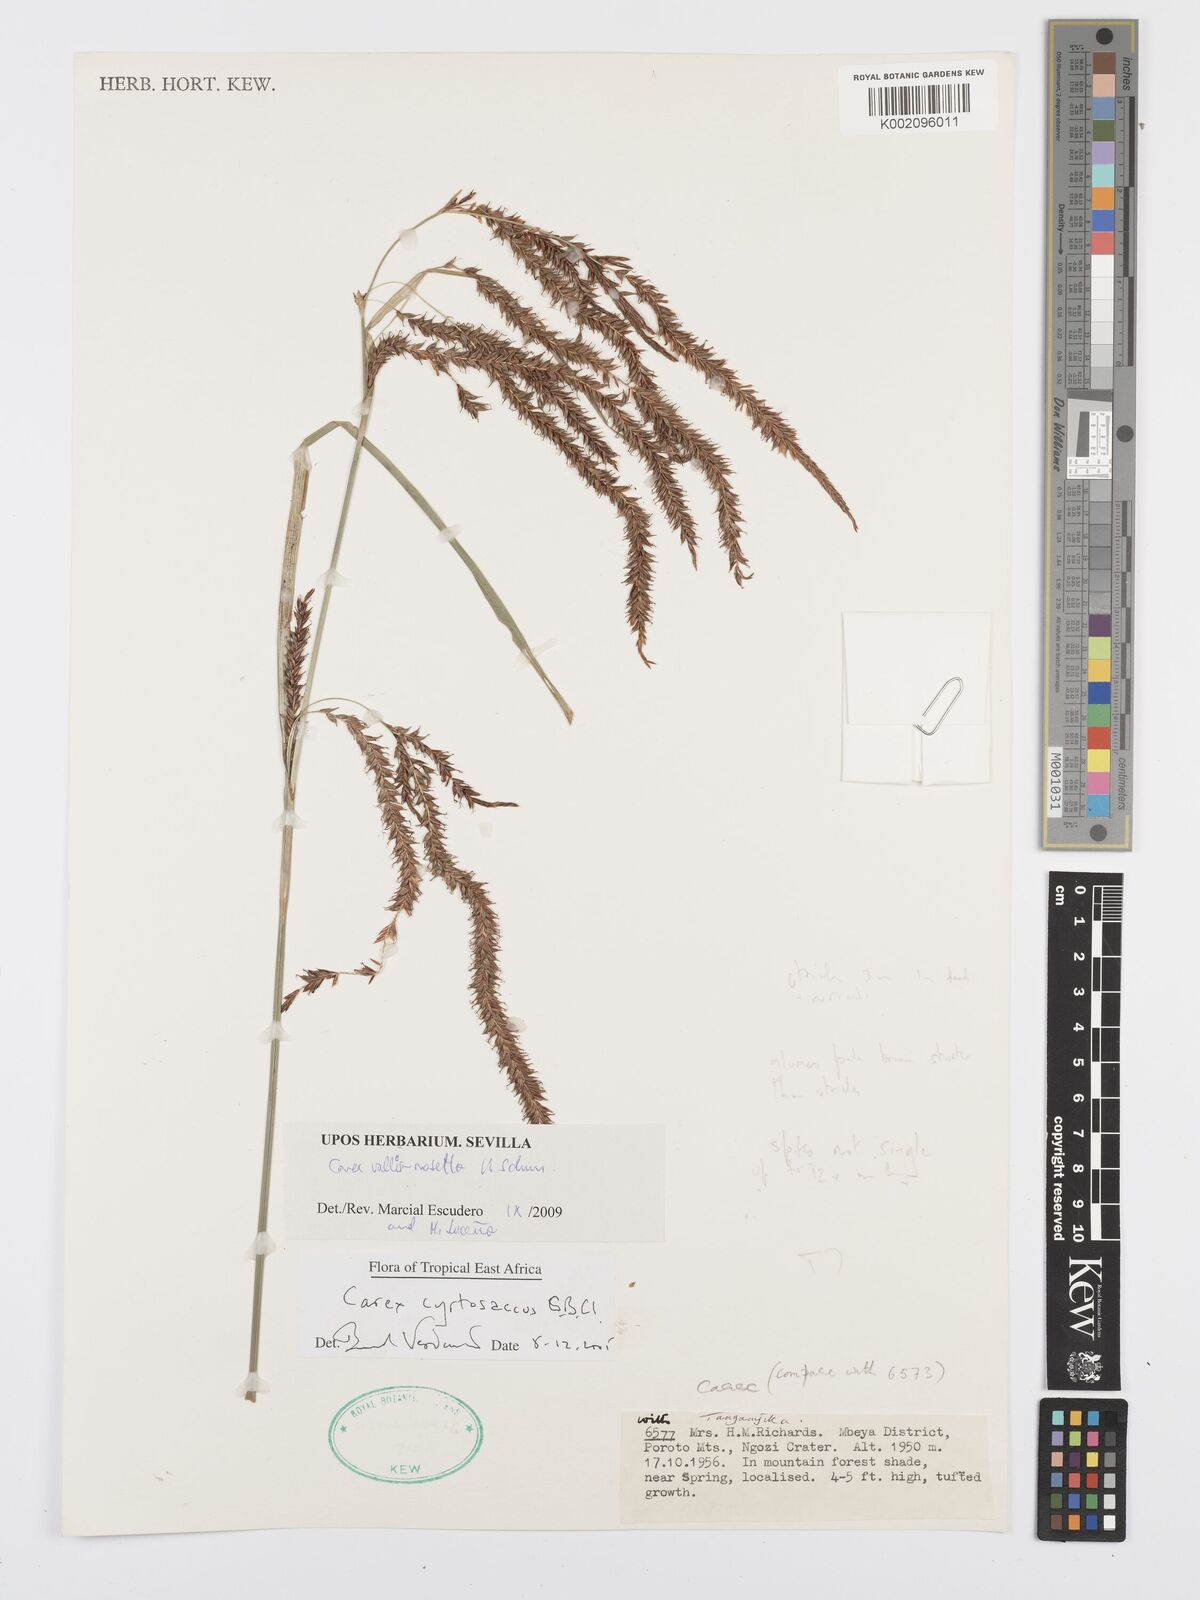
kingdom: Plantae
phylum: Tracheophyta
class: Liliopsida
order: Poales
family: Cyperaceae
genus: Carex
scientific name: Carex vallis-rosetto
